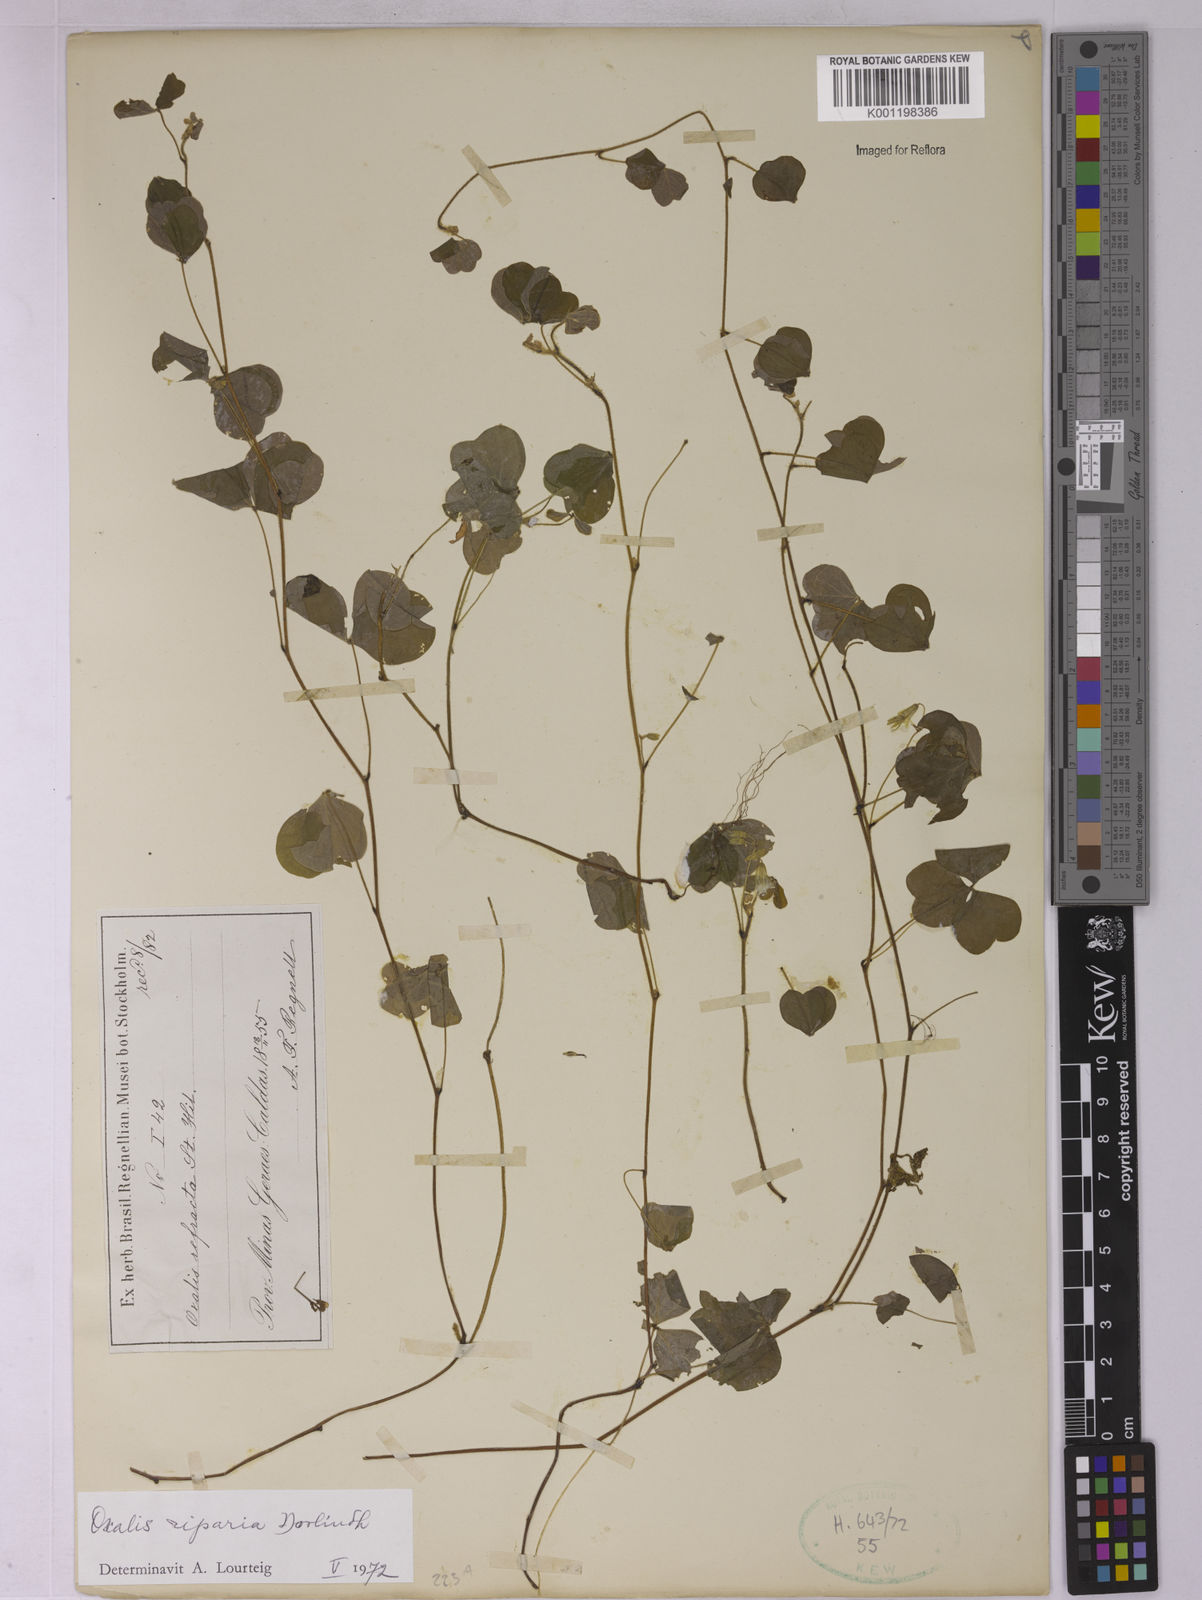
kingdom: Plantae
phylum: Tracheophyta
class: Magnoliopsida
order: Oxalidales
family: Oxalidaceae
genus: Oxalis
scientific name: Oxalis corniculata
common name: Procumbent yellow-sorrel
